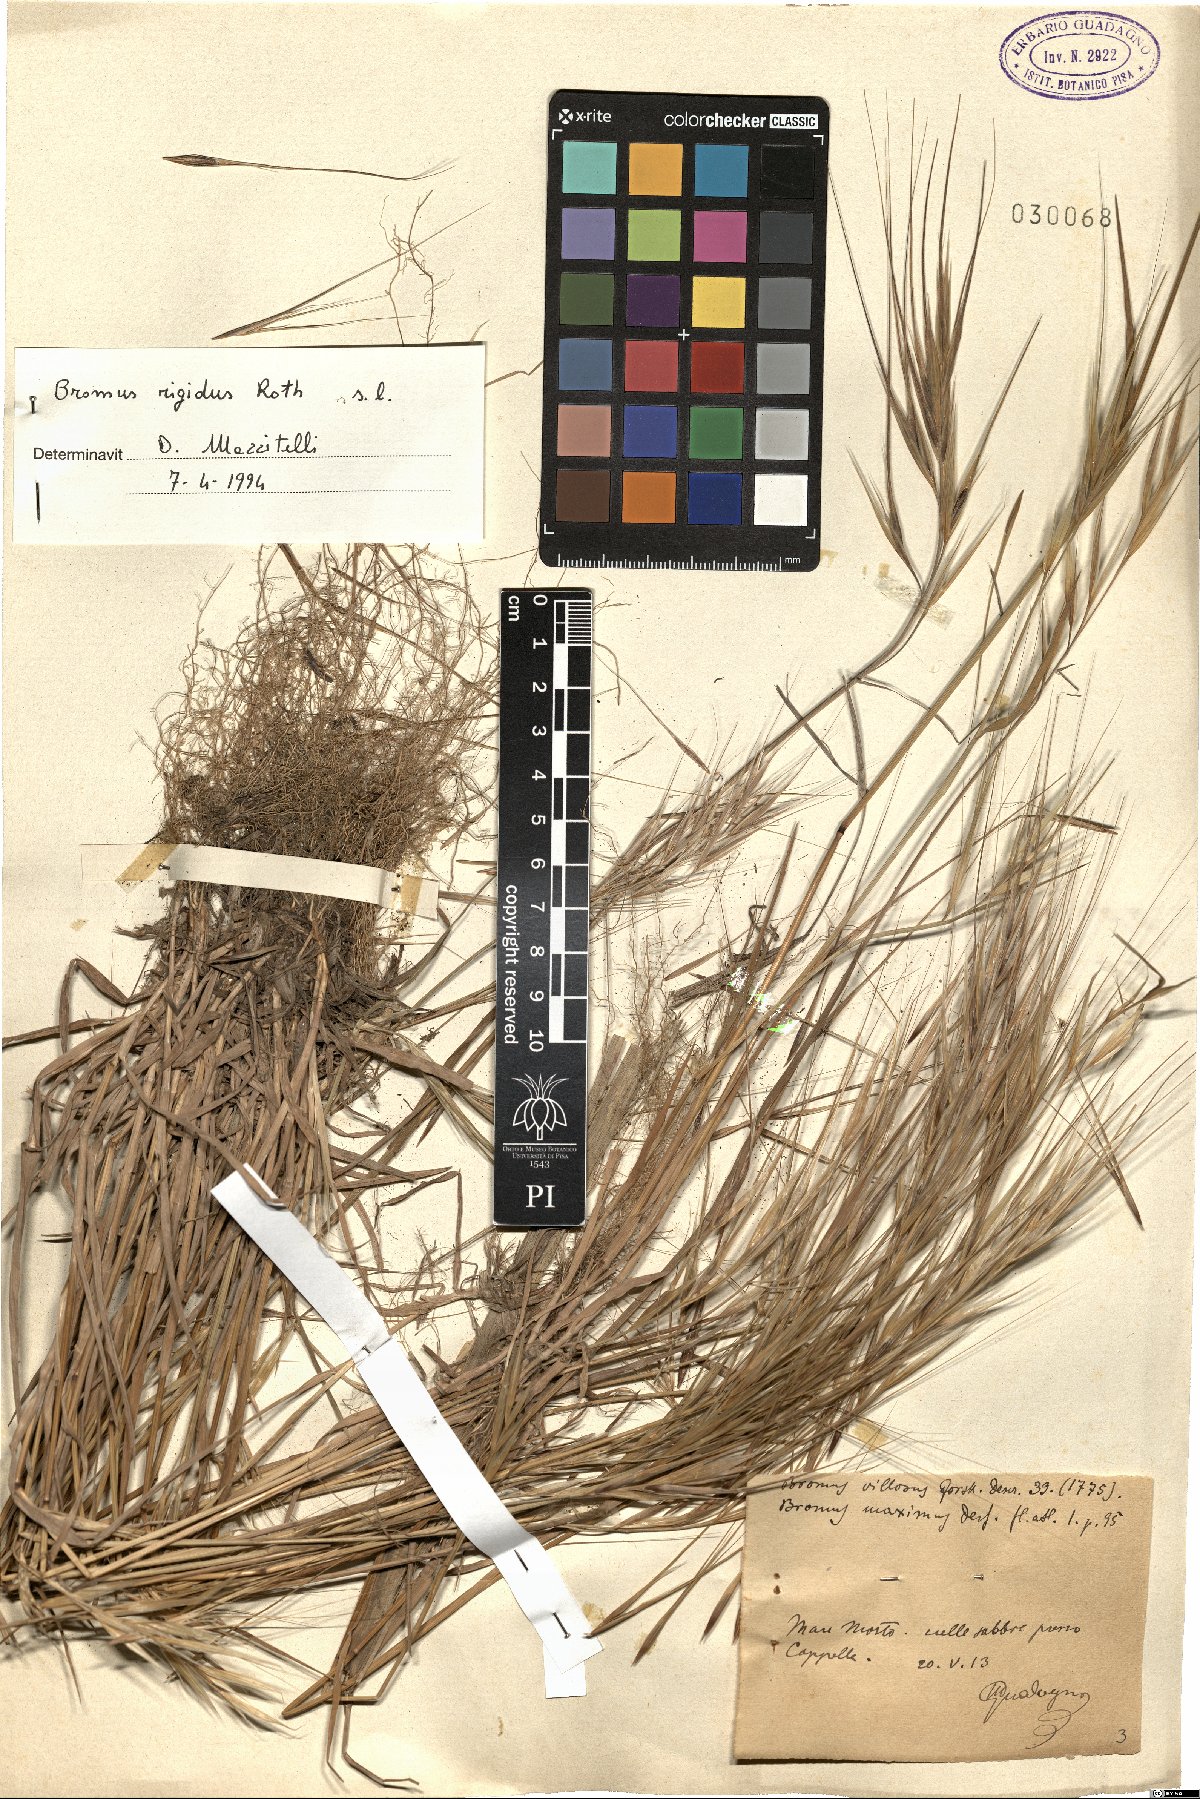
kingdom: Plantae
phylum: Tracheophyta
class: Liliopsida
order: Poales
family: Poaceae
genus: Bromus
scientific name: Bromus rigidus
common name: Ripgut brome
